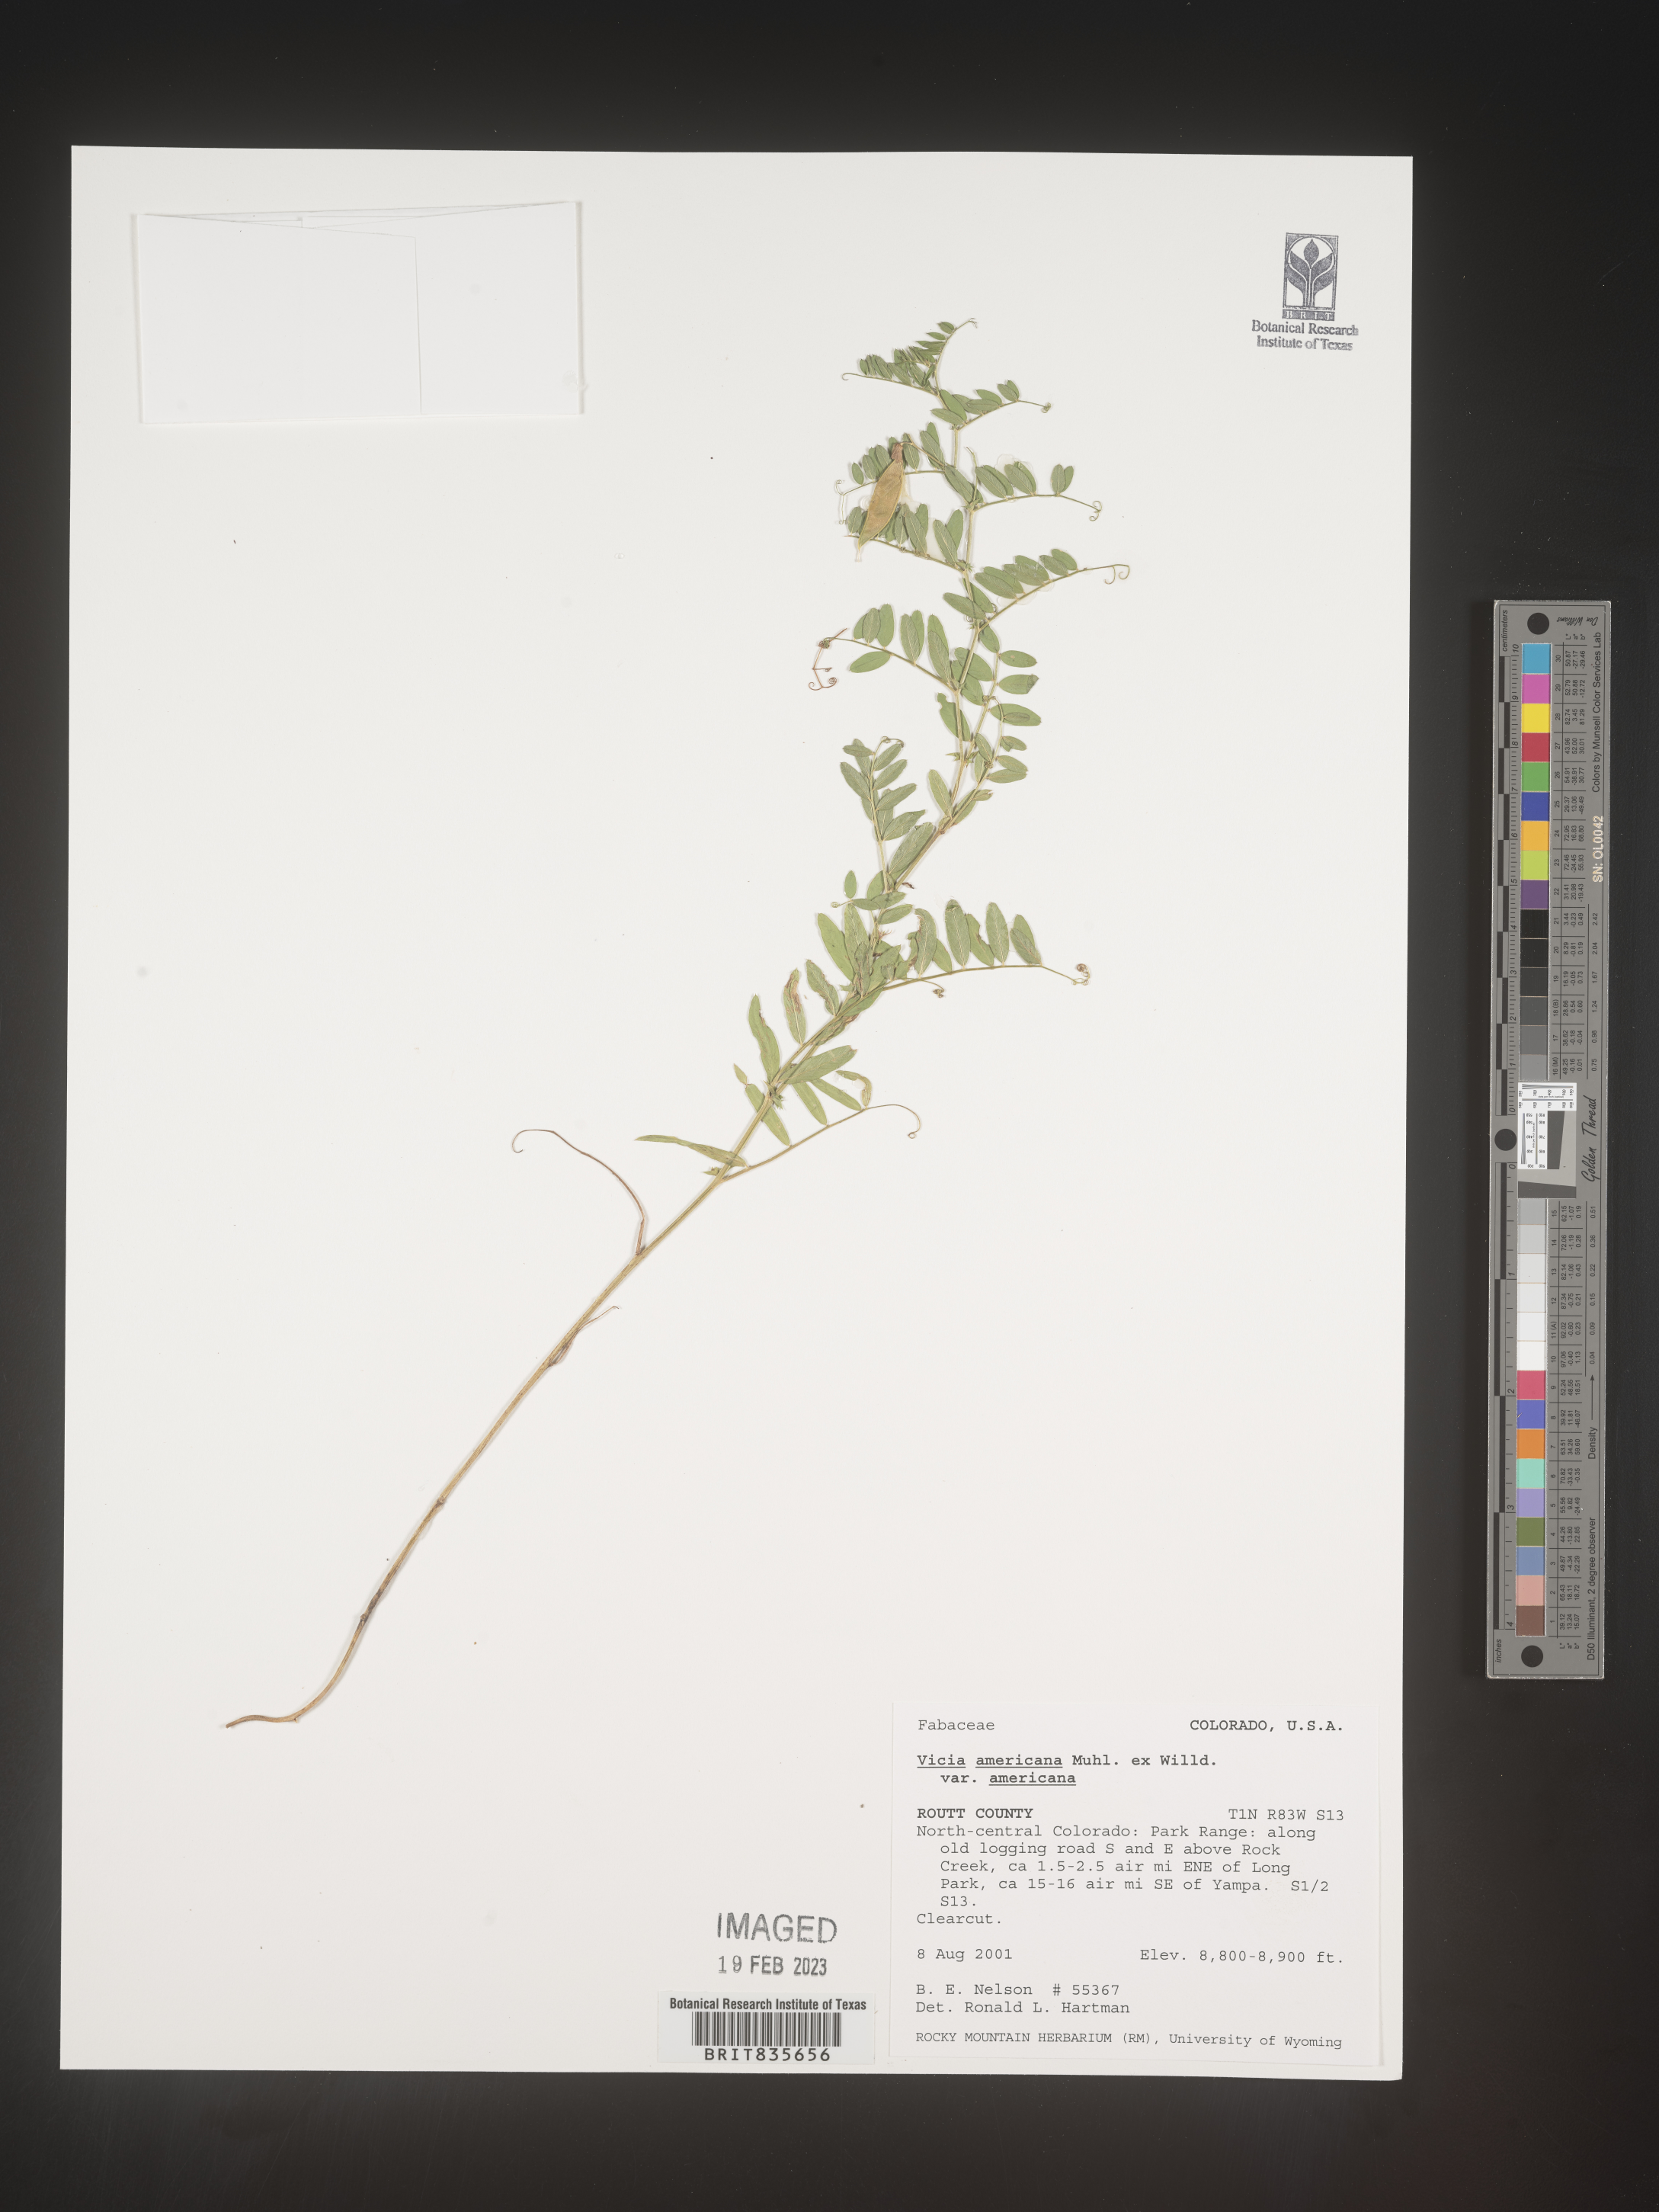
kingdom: Plantae
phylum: Tracheophyta
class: Magnoliopsida
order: Fabales
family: Fabaceae
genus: Vicia
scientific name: Vicia americana
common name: American vetch
